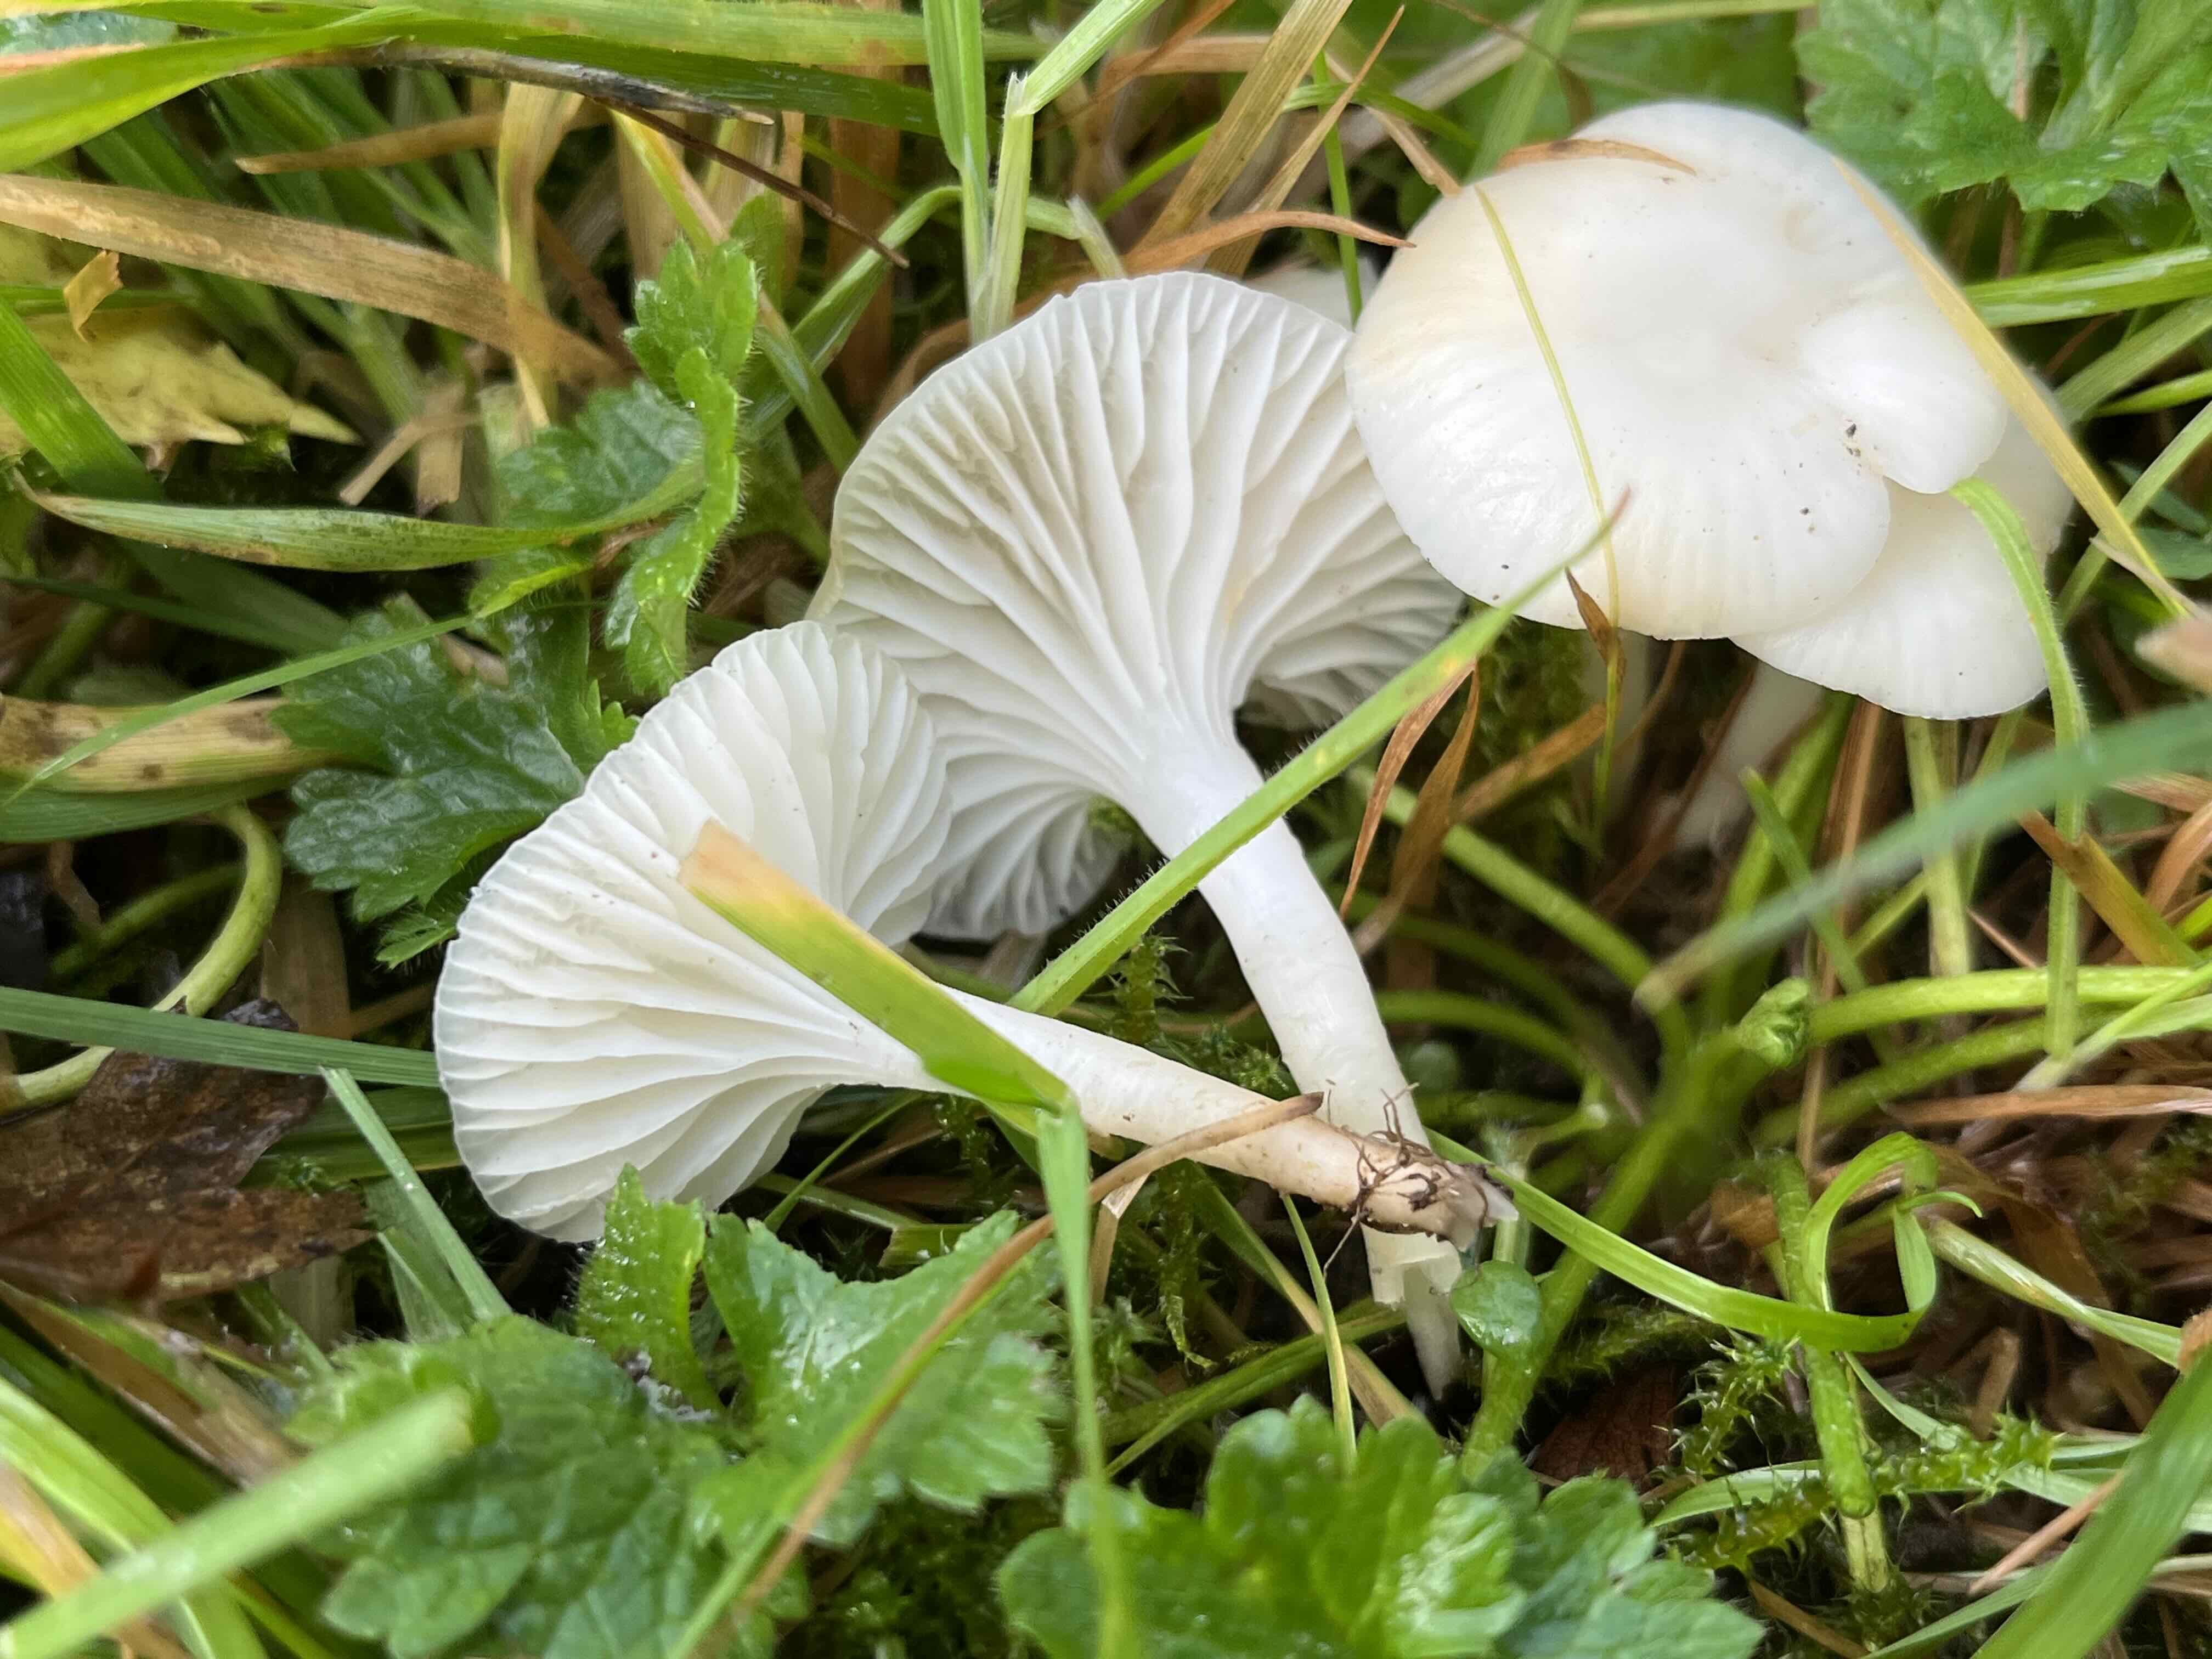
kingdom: Fungi
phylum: Basidiomycota
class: Agaricomycetes
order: Agaricales
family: Hygrophoraceae
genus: Cuphophyllus
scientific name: Cuphophyllus virgineus
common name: snehvid vokshat
